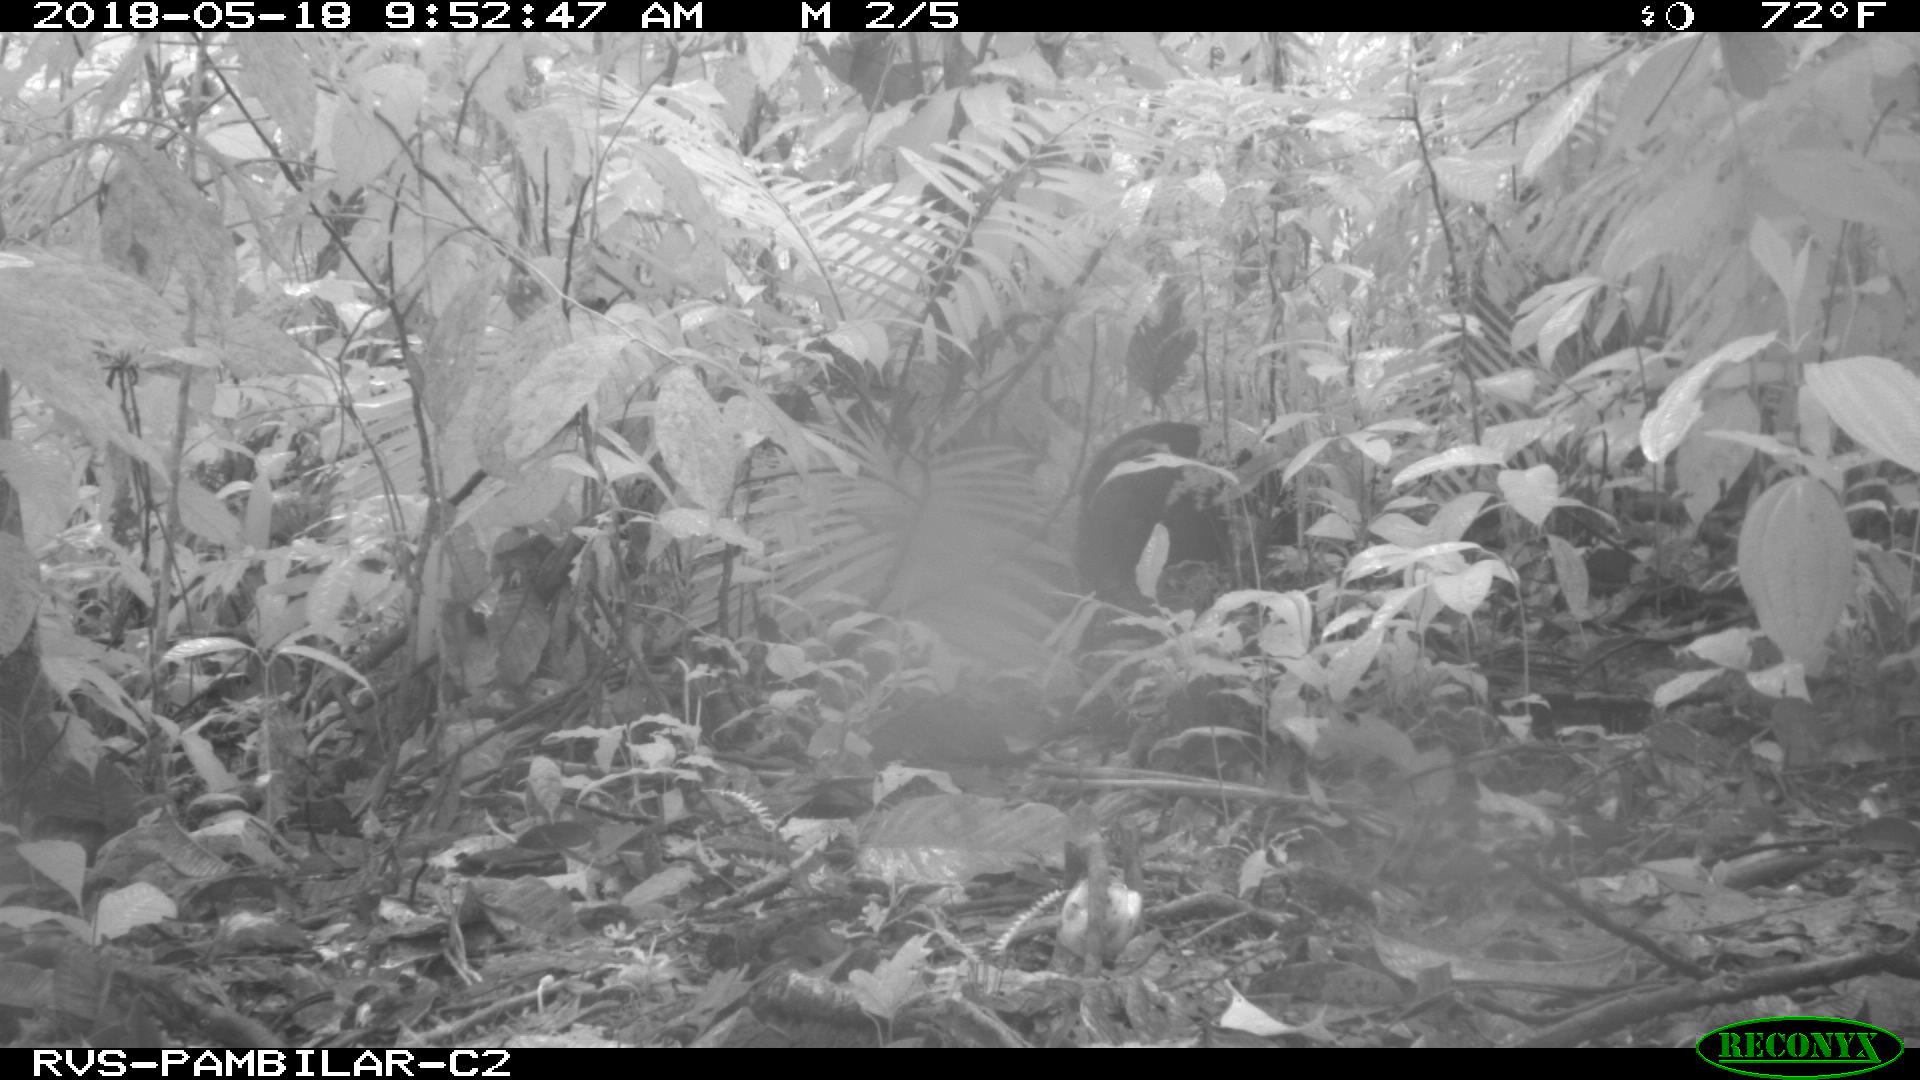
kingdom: Animalia
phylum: Chordata
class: Mammalia
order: Artiodactyla
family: Tayassuidae
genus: Pecari
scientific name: Pecari tajacu
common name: Collared peccary
